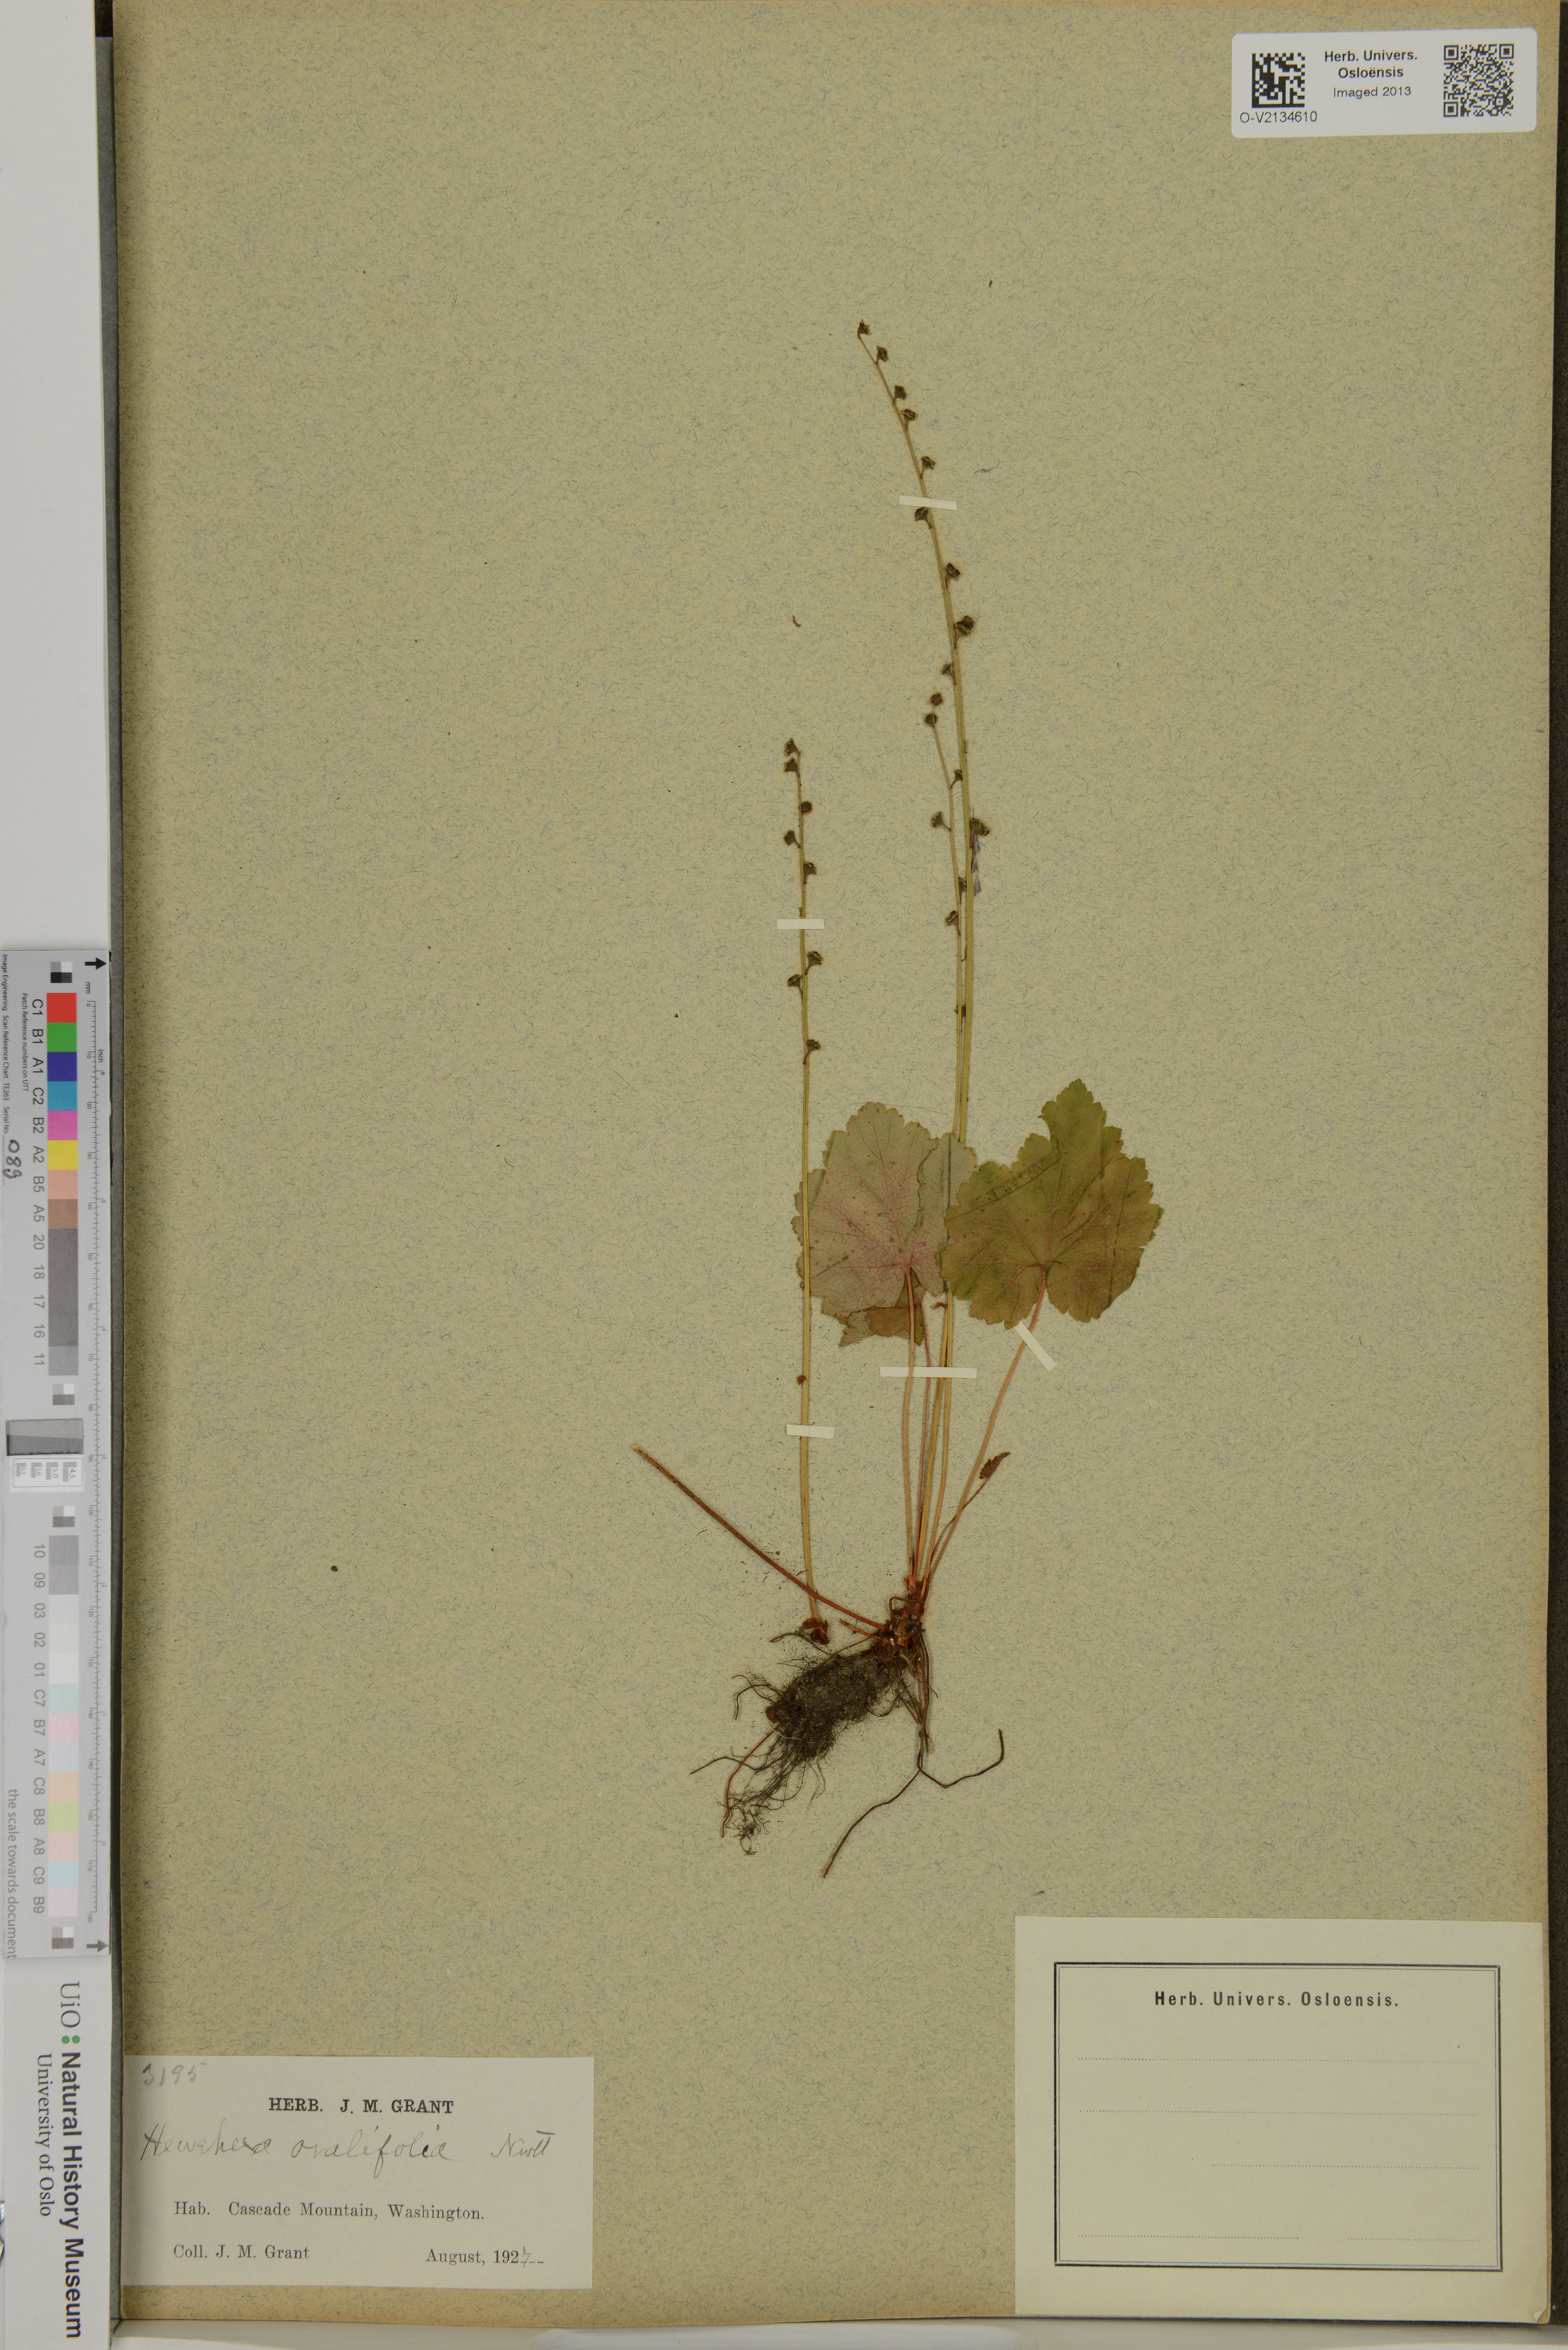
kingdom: Plantae
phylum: Tracheophyta
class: Magnoliopsida
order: Saxifragales
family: Saxifragaceae
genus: Heuchera
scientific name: Heuchera cylindrica
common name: Mat alumroot
